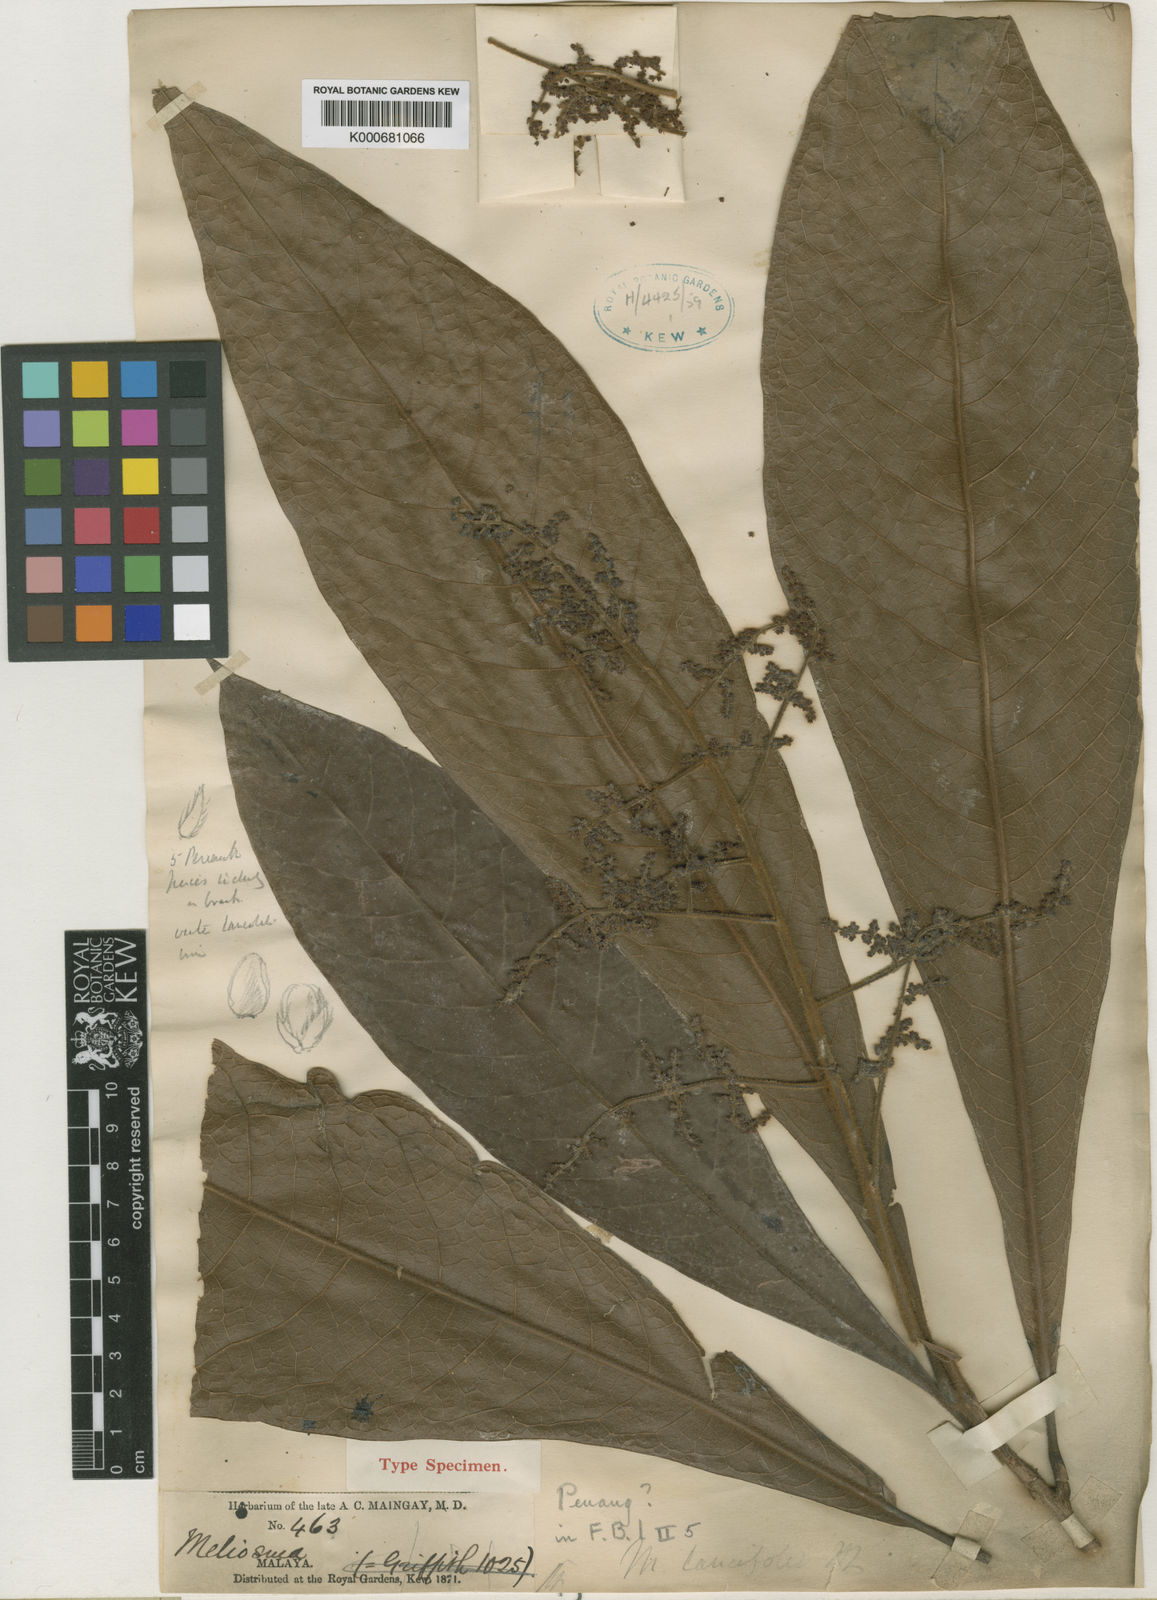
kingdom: Plantae
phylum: Tracheophyta
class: Magnoliopsida
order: Proteales
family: Sabiaceae
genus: Meliosma
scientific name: Meliosma simplicifolia
